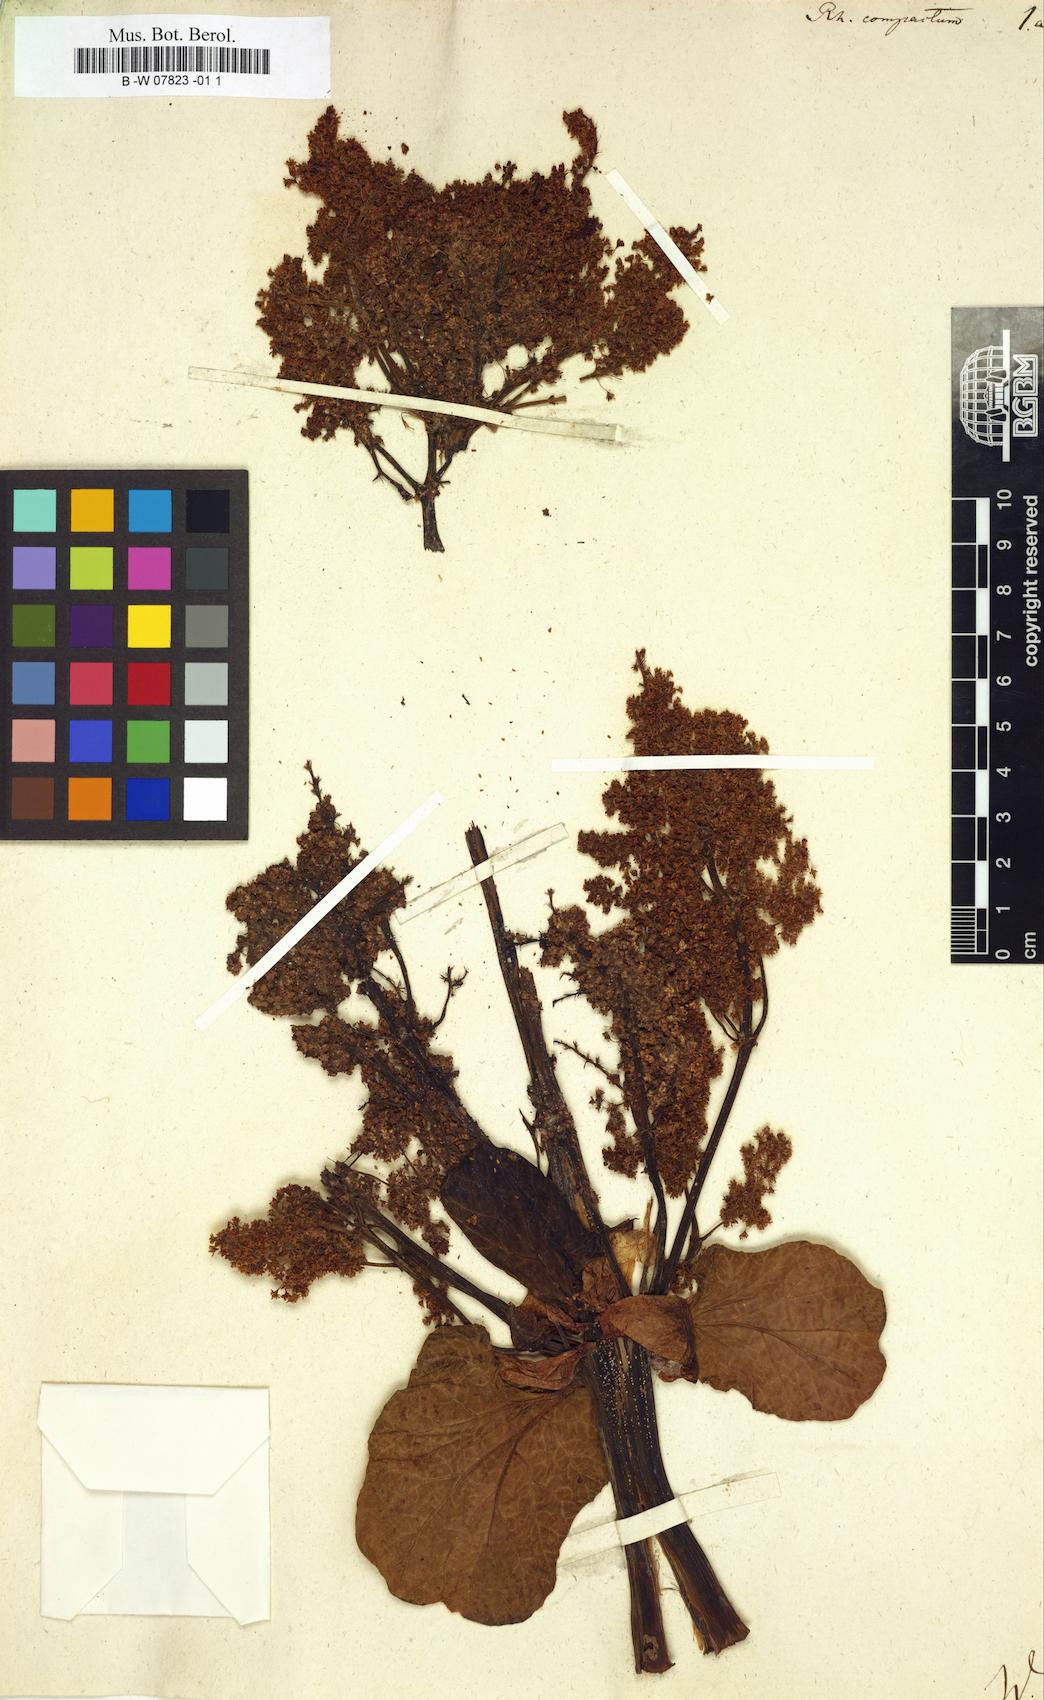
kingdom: Plantae
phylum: Tracheophyta
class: Magnoliopsida
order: Caryophyllales
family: Polygonaceae
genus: Rheum
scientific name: Rheum compactum
